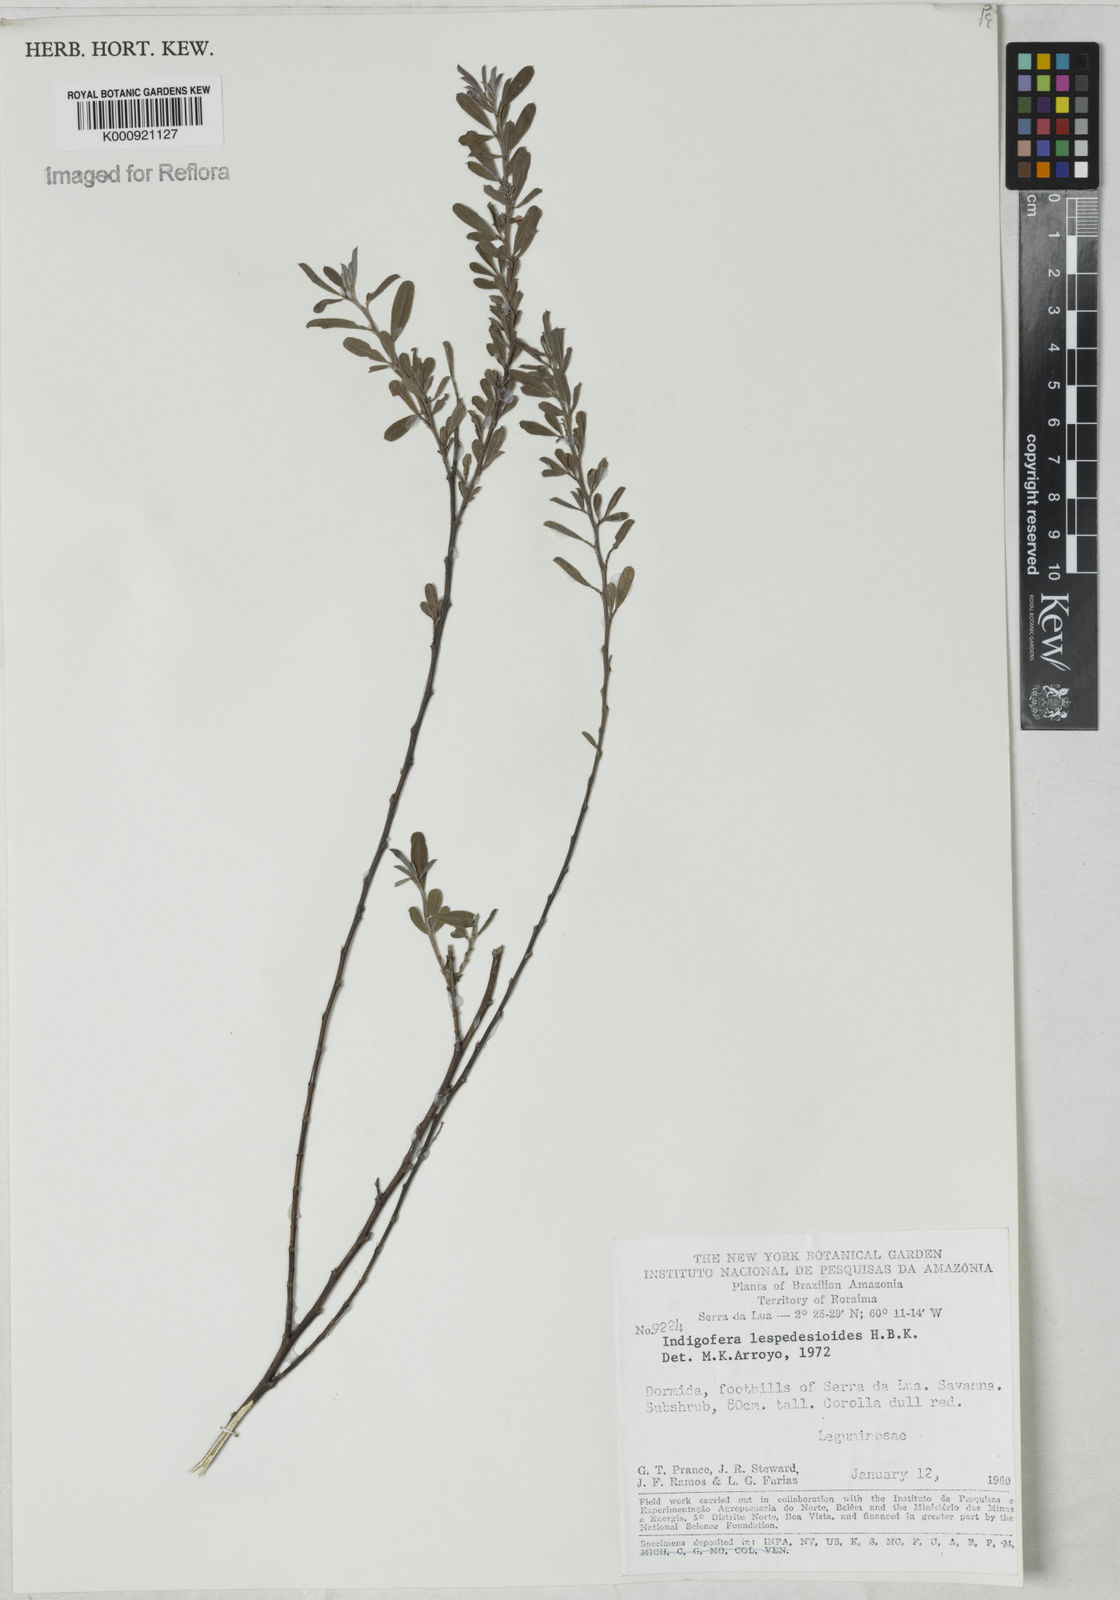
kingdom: Plantae
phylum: Tracheophyta
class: Magnoliopsida
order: Fabales
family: Fabaceae
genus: Indigofera
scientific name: Indigofera lespedezioides
